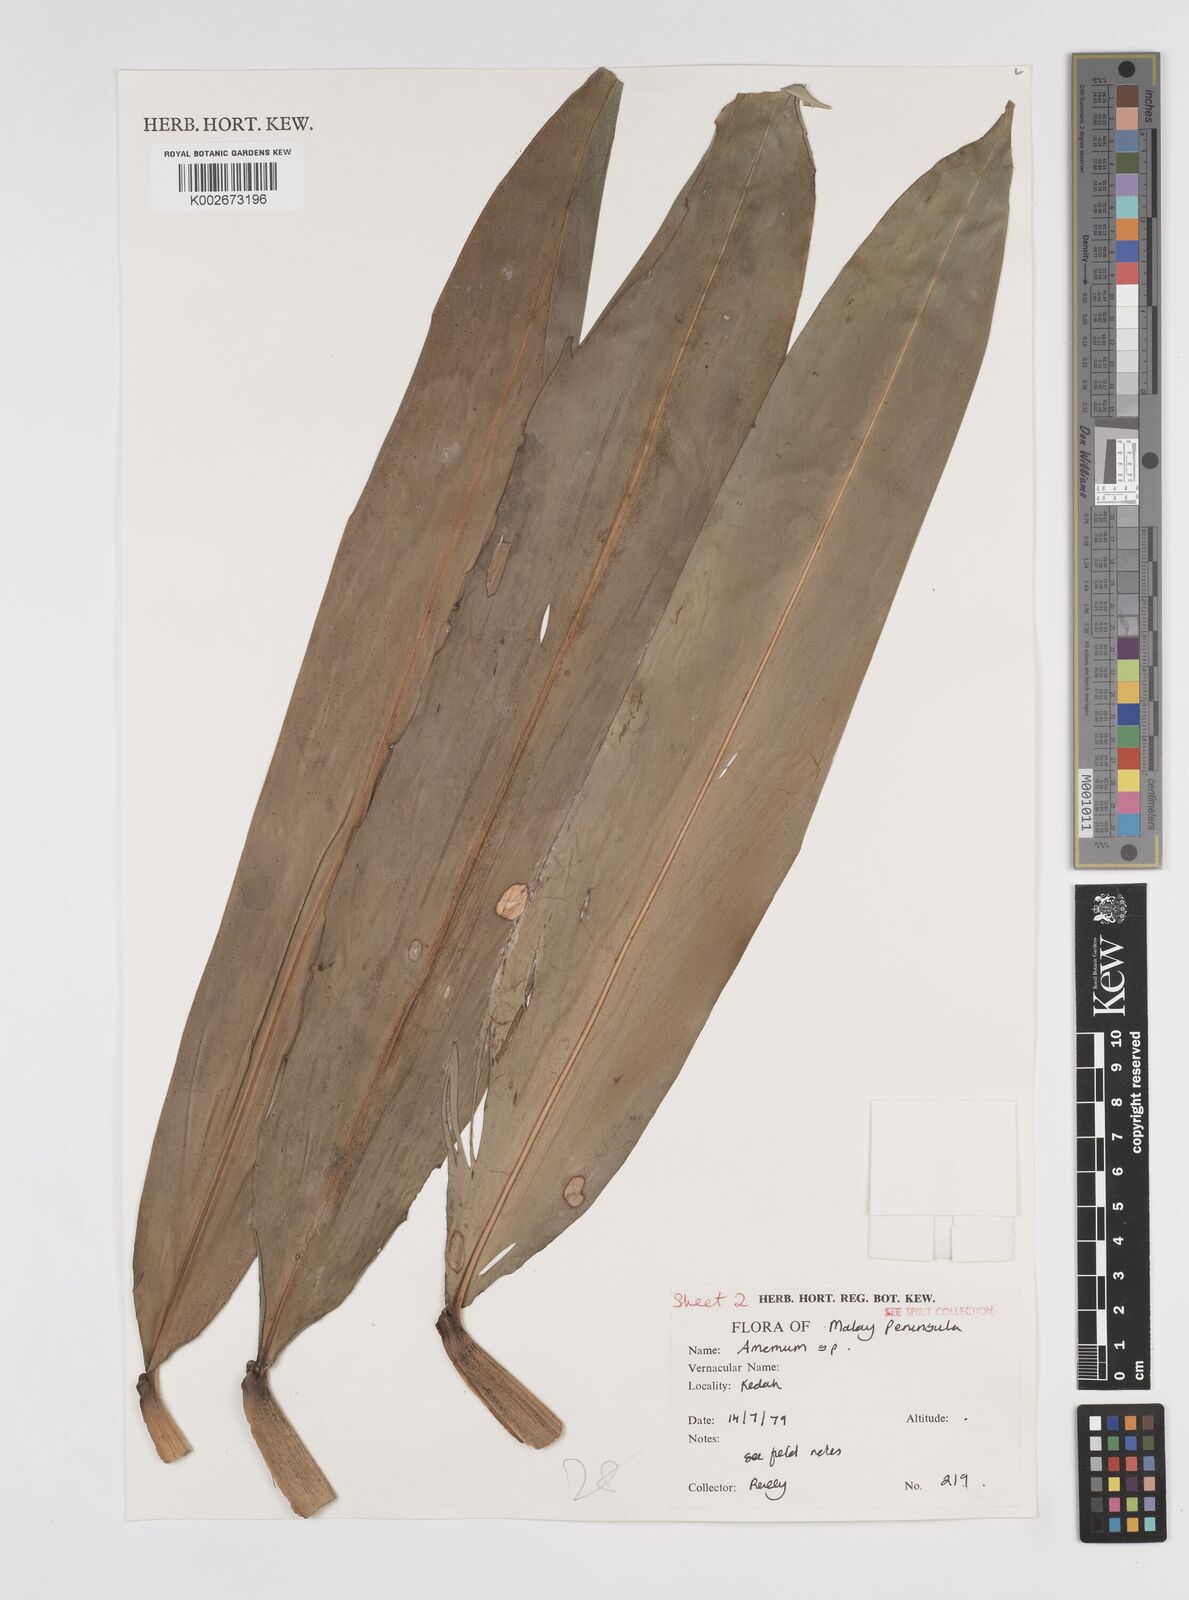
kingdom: Plantae
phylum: Tracheophyta
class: Liliopsida
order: Zingiberales
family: Zingiberaceae
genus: Amomum
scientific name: Amomum
